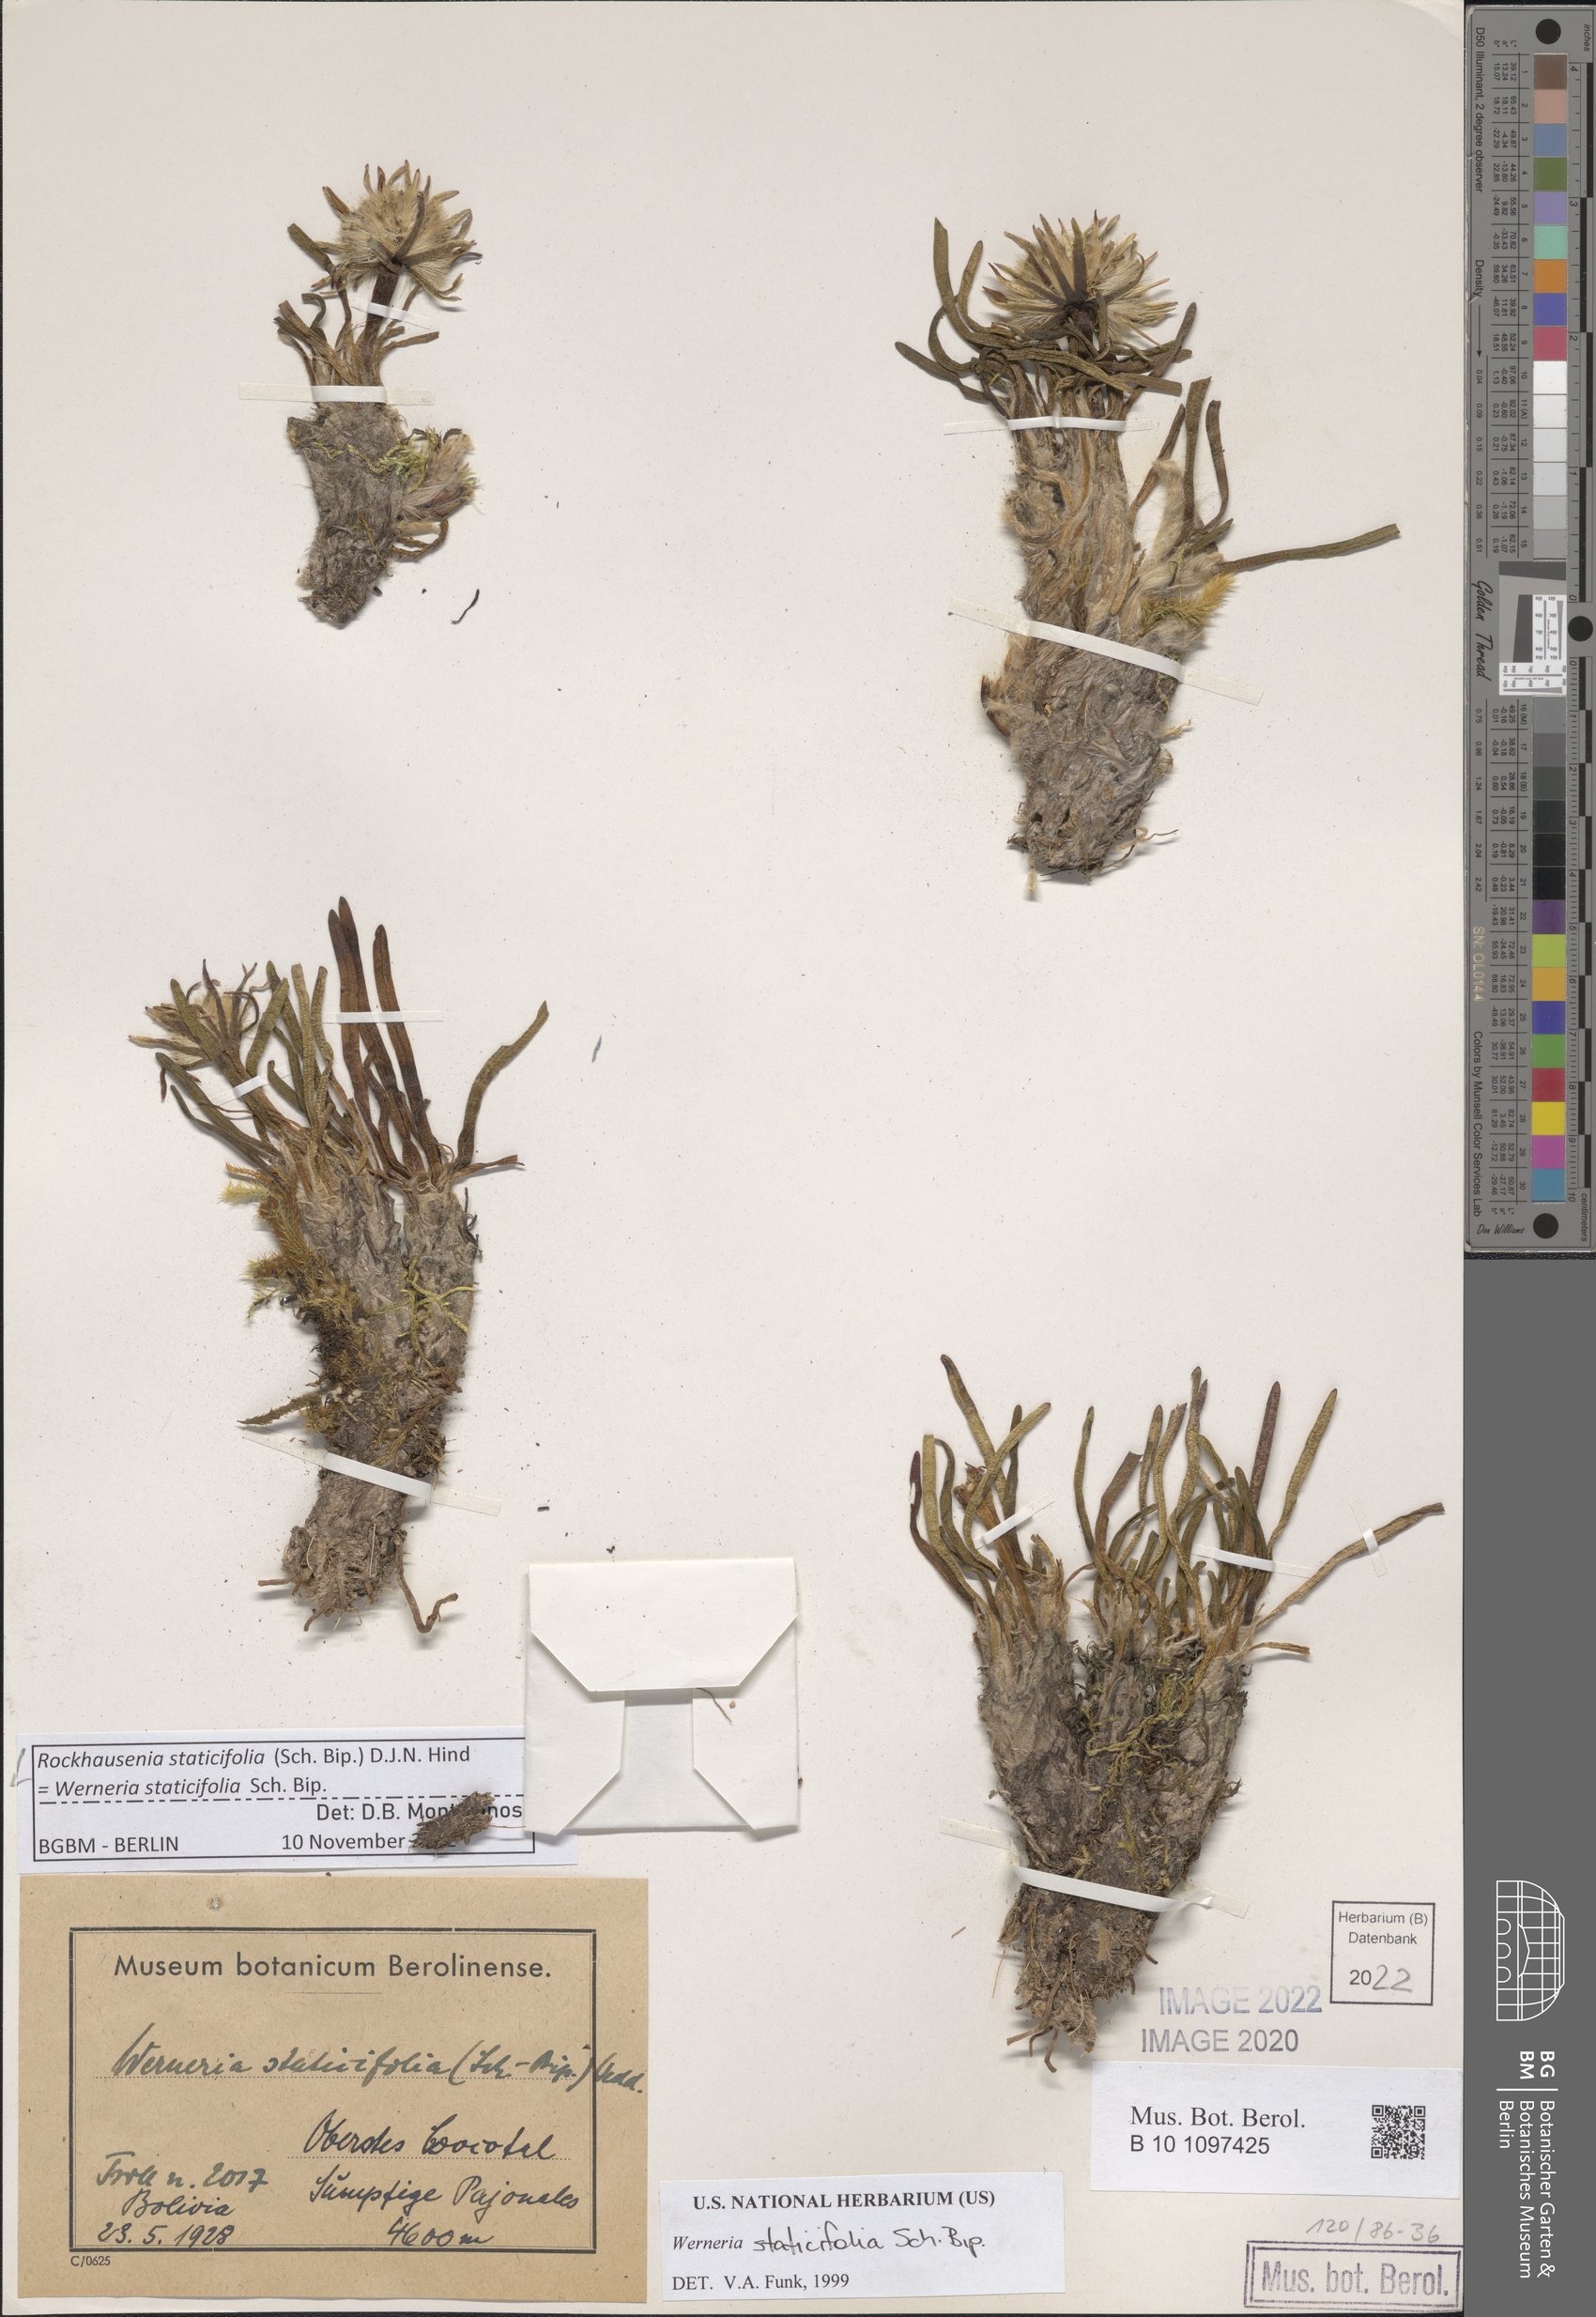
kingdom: Plantae
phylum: Tracheophyta
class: Magnoliopsida
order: Asterales
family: Asteraceae
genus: Rockhausenia
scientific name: Rockhausenia staticifolia
